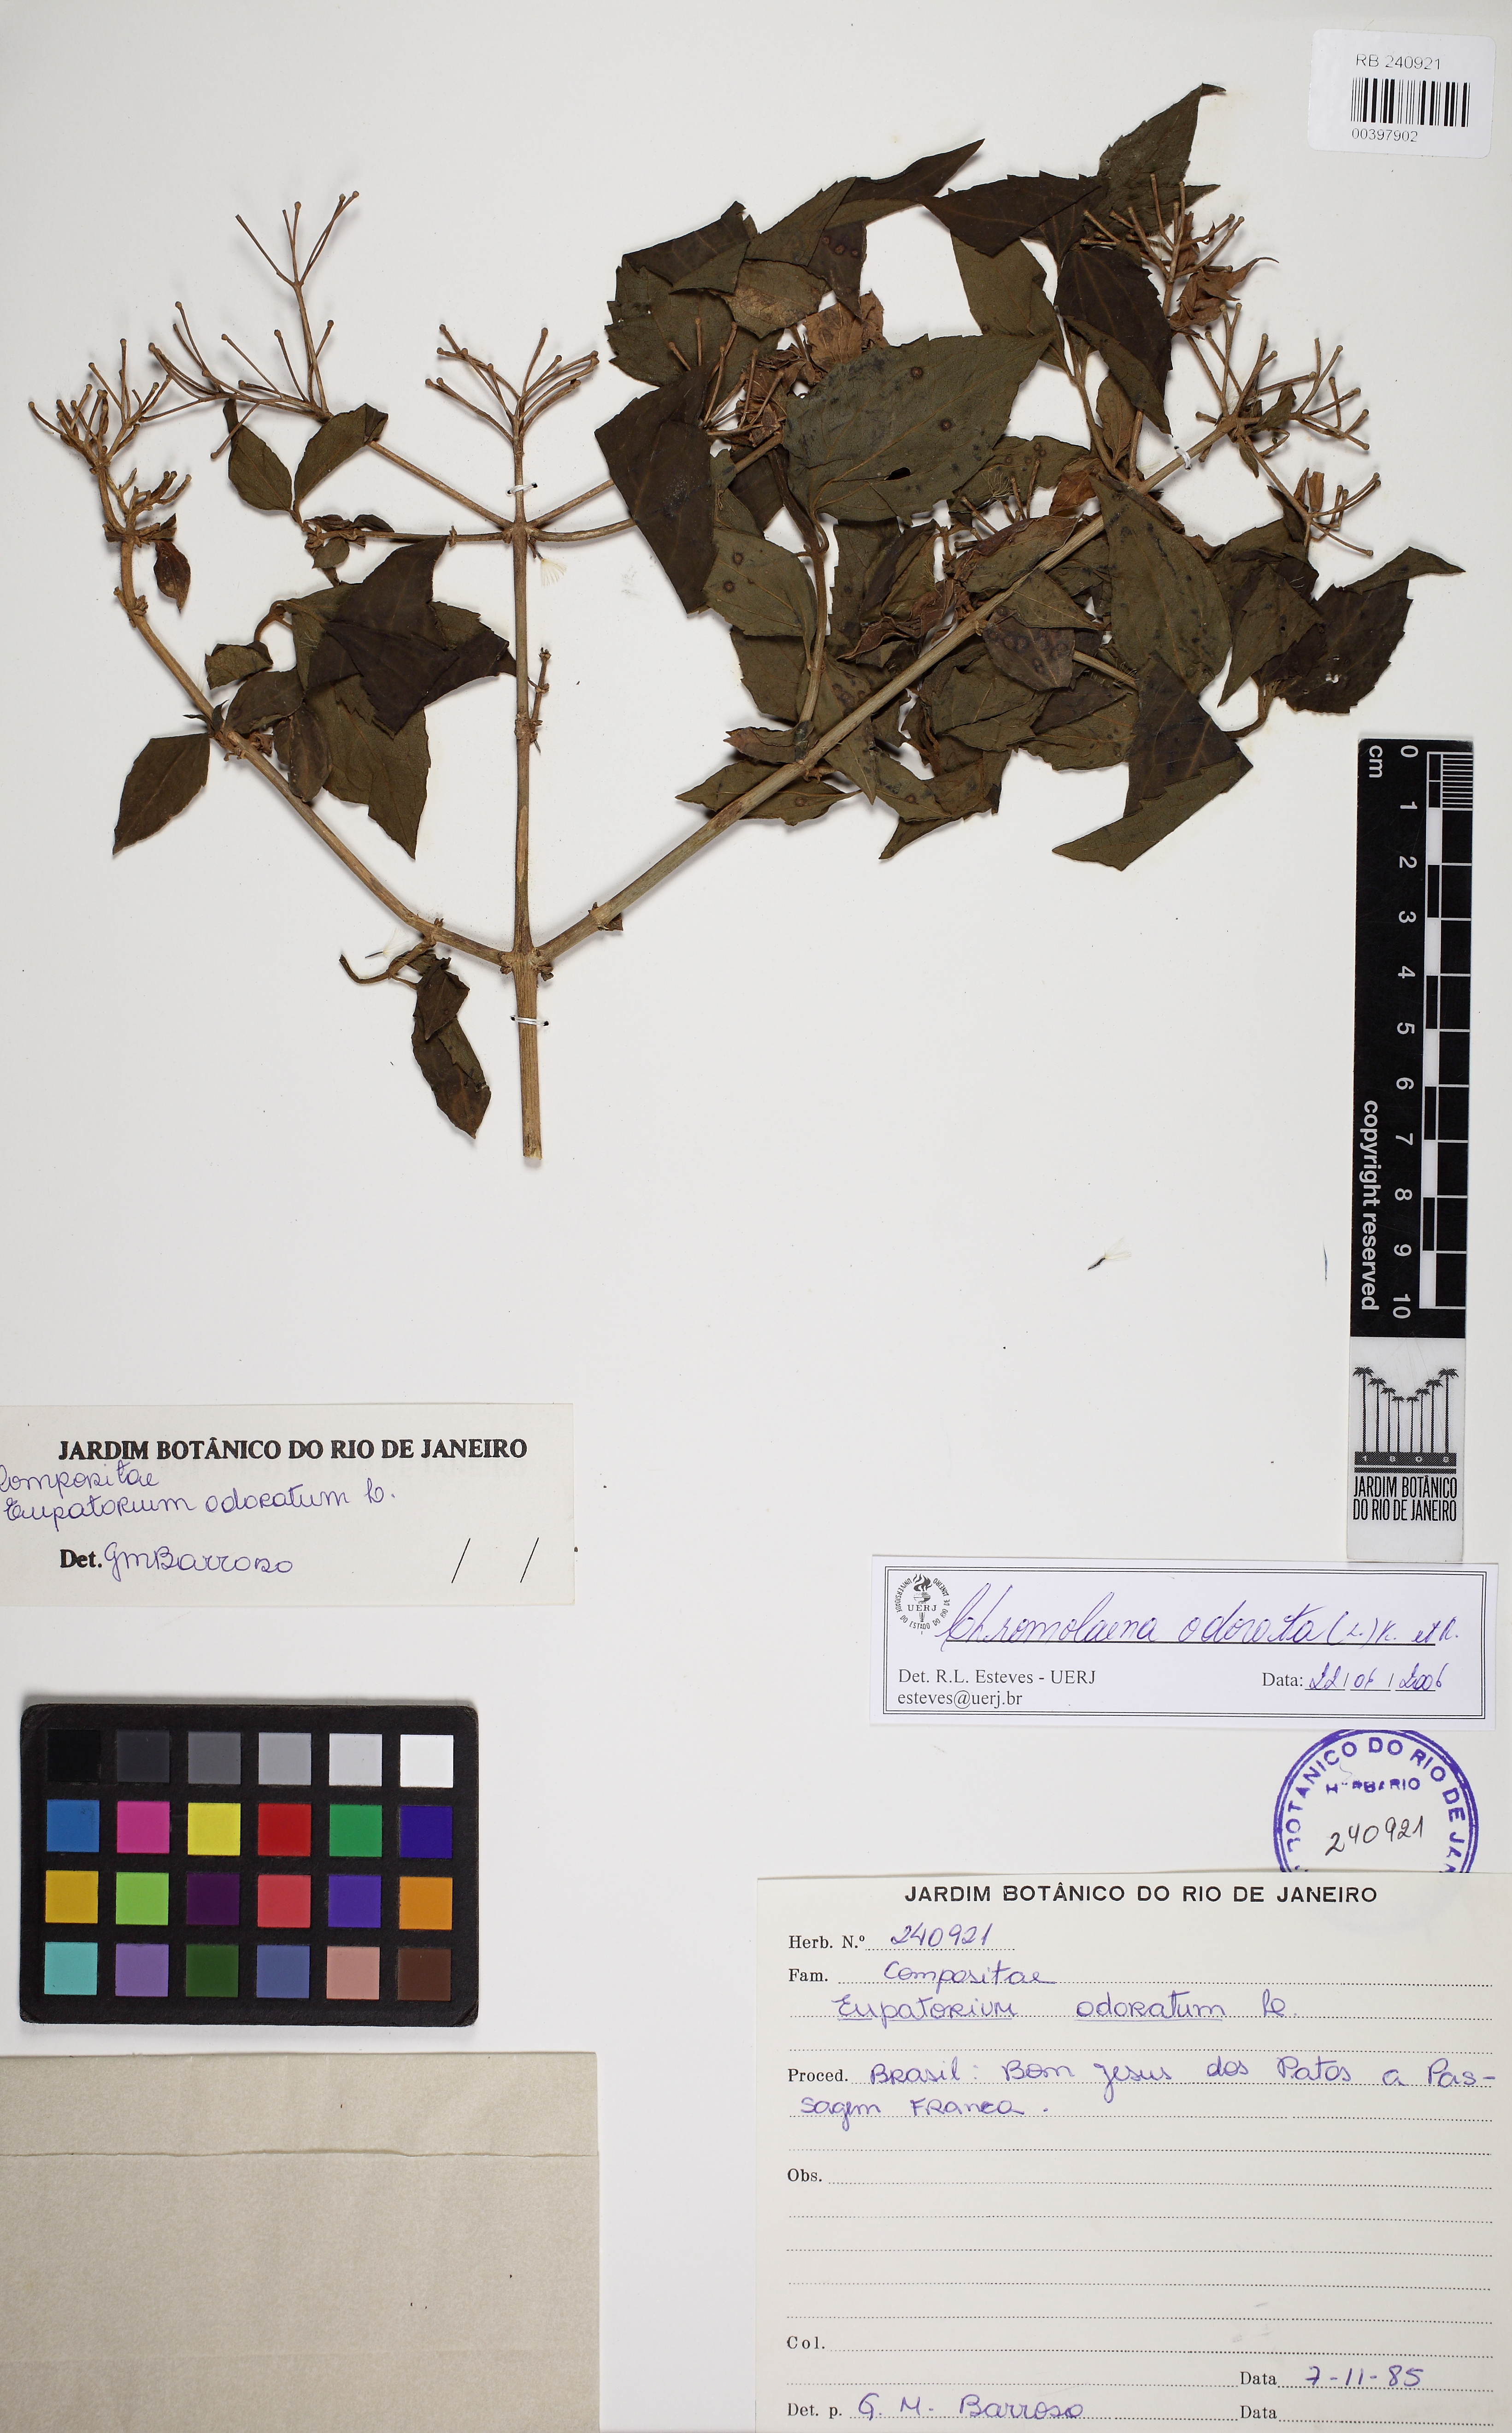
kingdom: Plantae
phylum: Tracheophyta
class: Magnoliopsida
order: Asterales
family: Asteraceae
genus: Chromolaena
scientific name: Chromolaena odorata
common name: Siamweed
